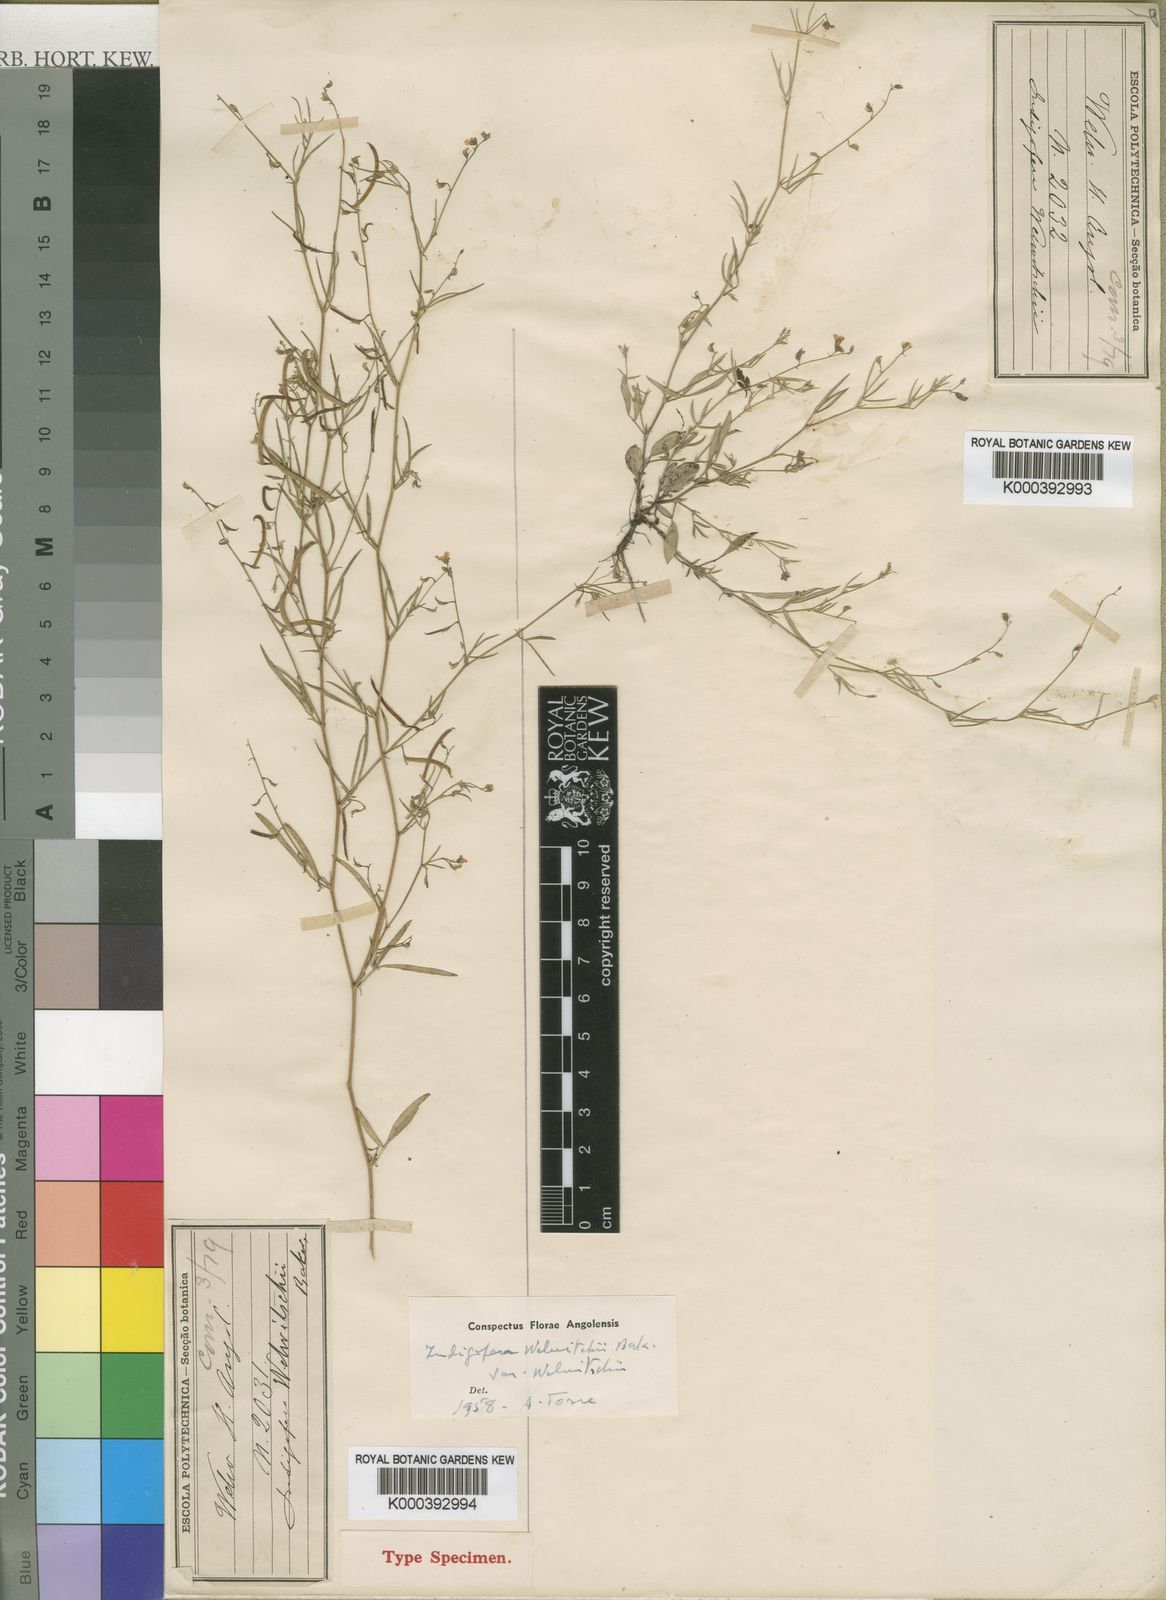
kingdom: Plantae
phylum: Tracheophyta
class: Magnoliopsida
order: Fabales
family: Fabaceae
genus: Microcharis
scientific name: Microcharis welwitschii
